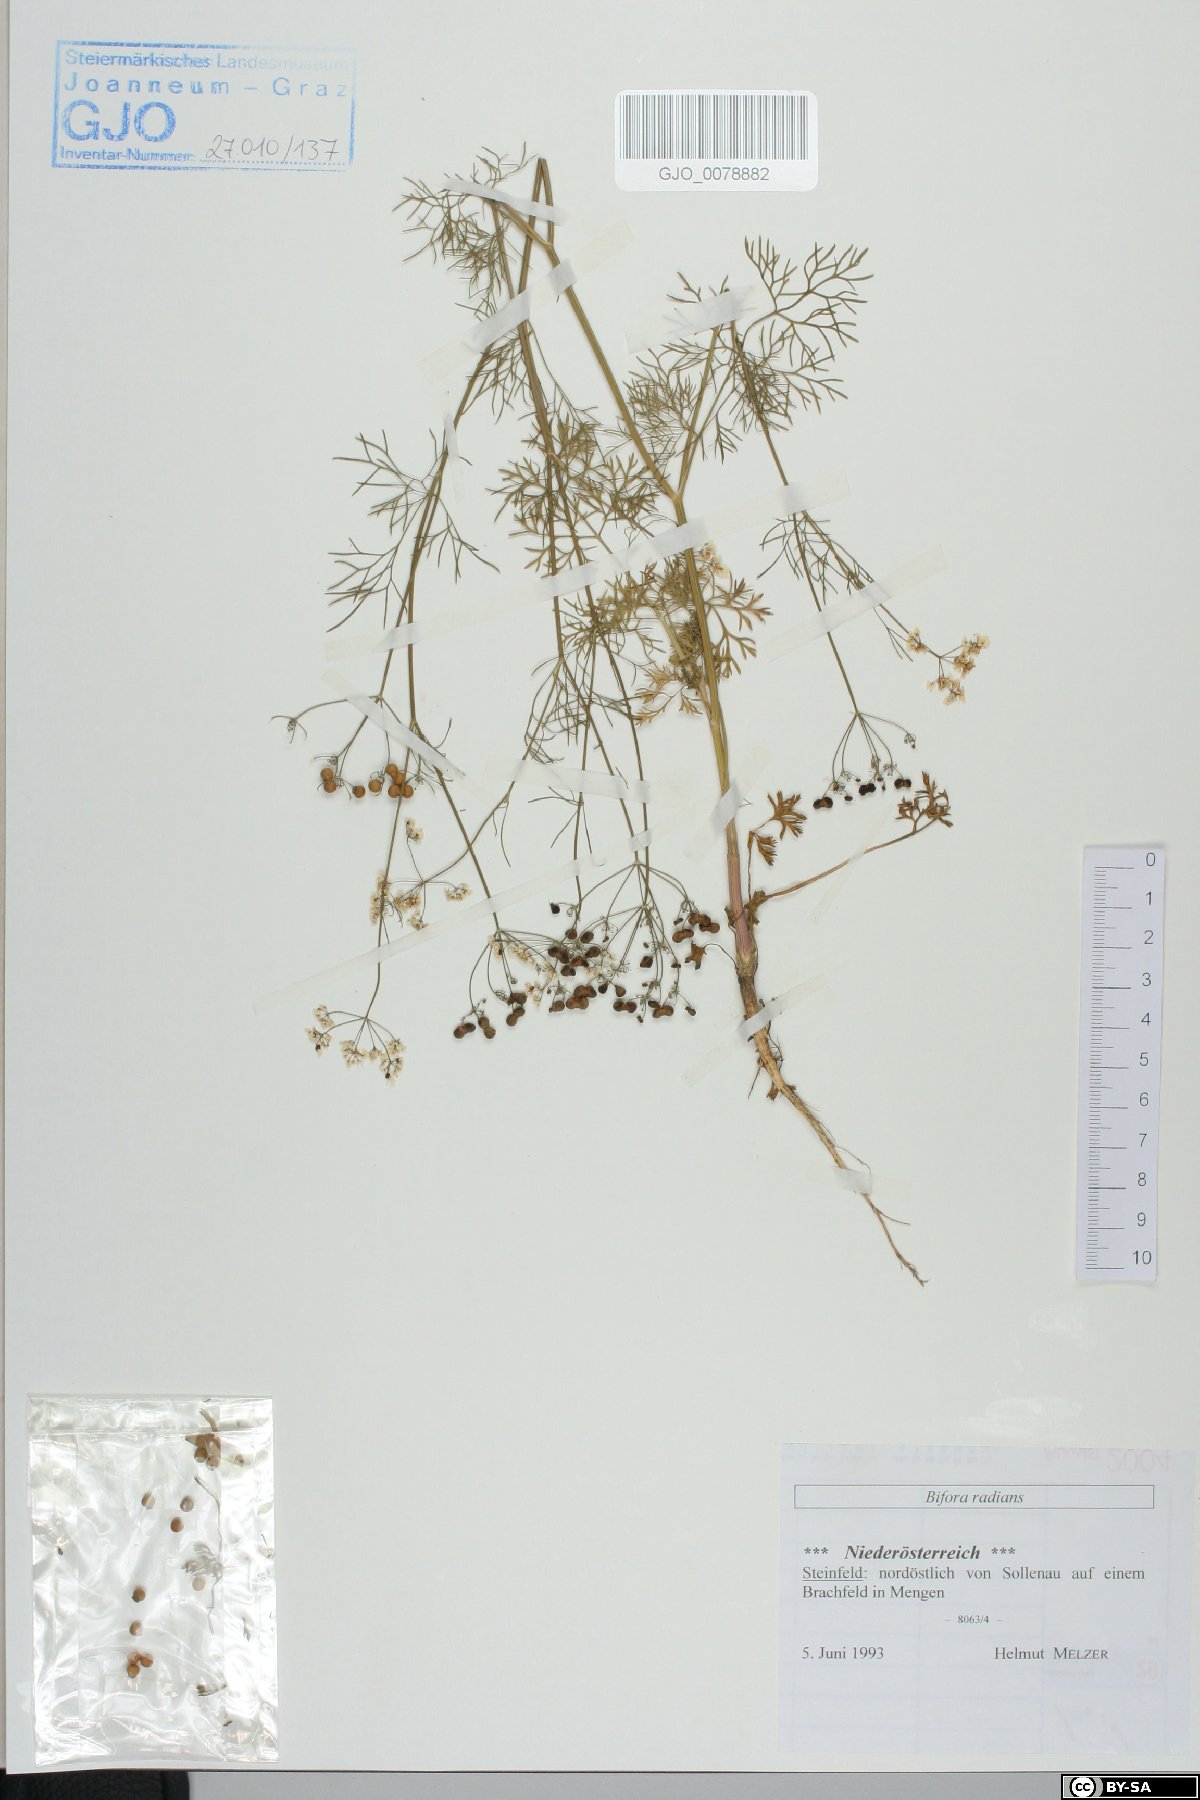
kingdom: Plantae
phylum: Tracheophyta
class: Magnoliopsida
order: Apiales
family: Apiaceae
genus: Bifora
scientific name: Bifora radians
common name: Wild bishop
